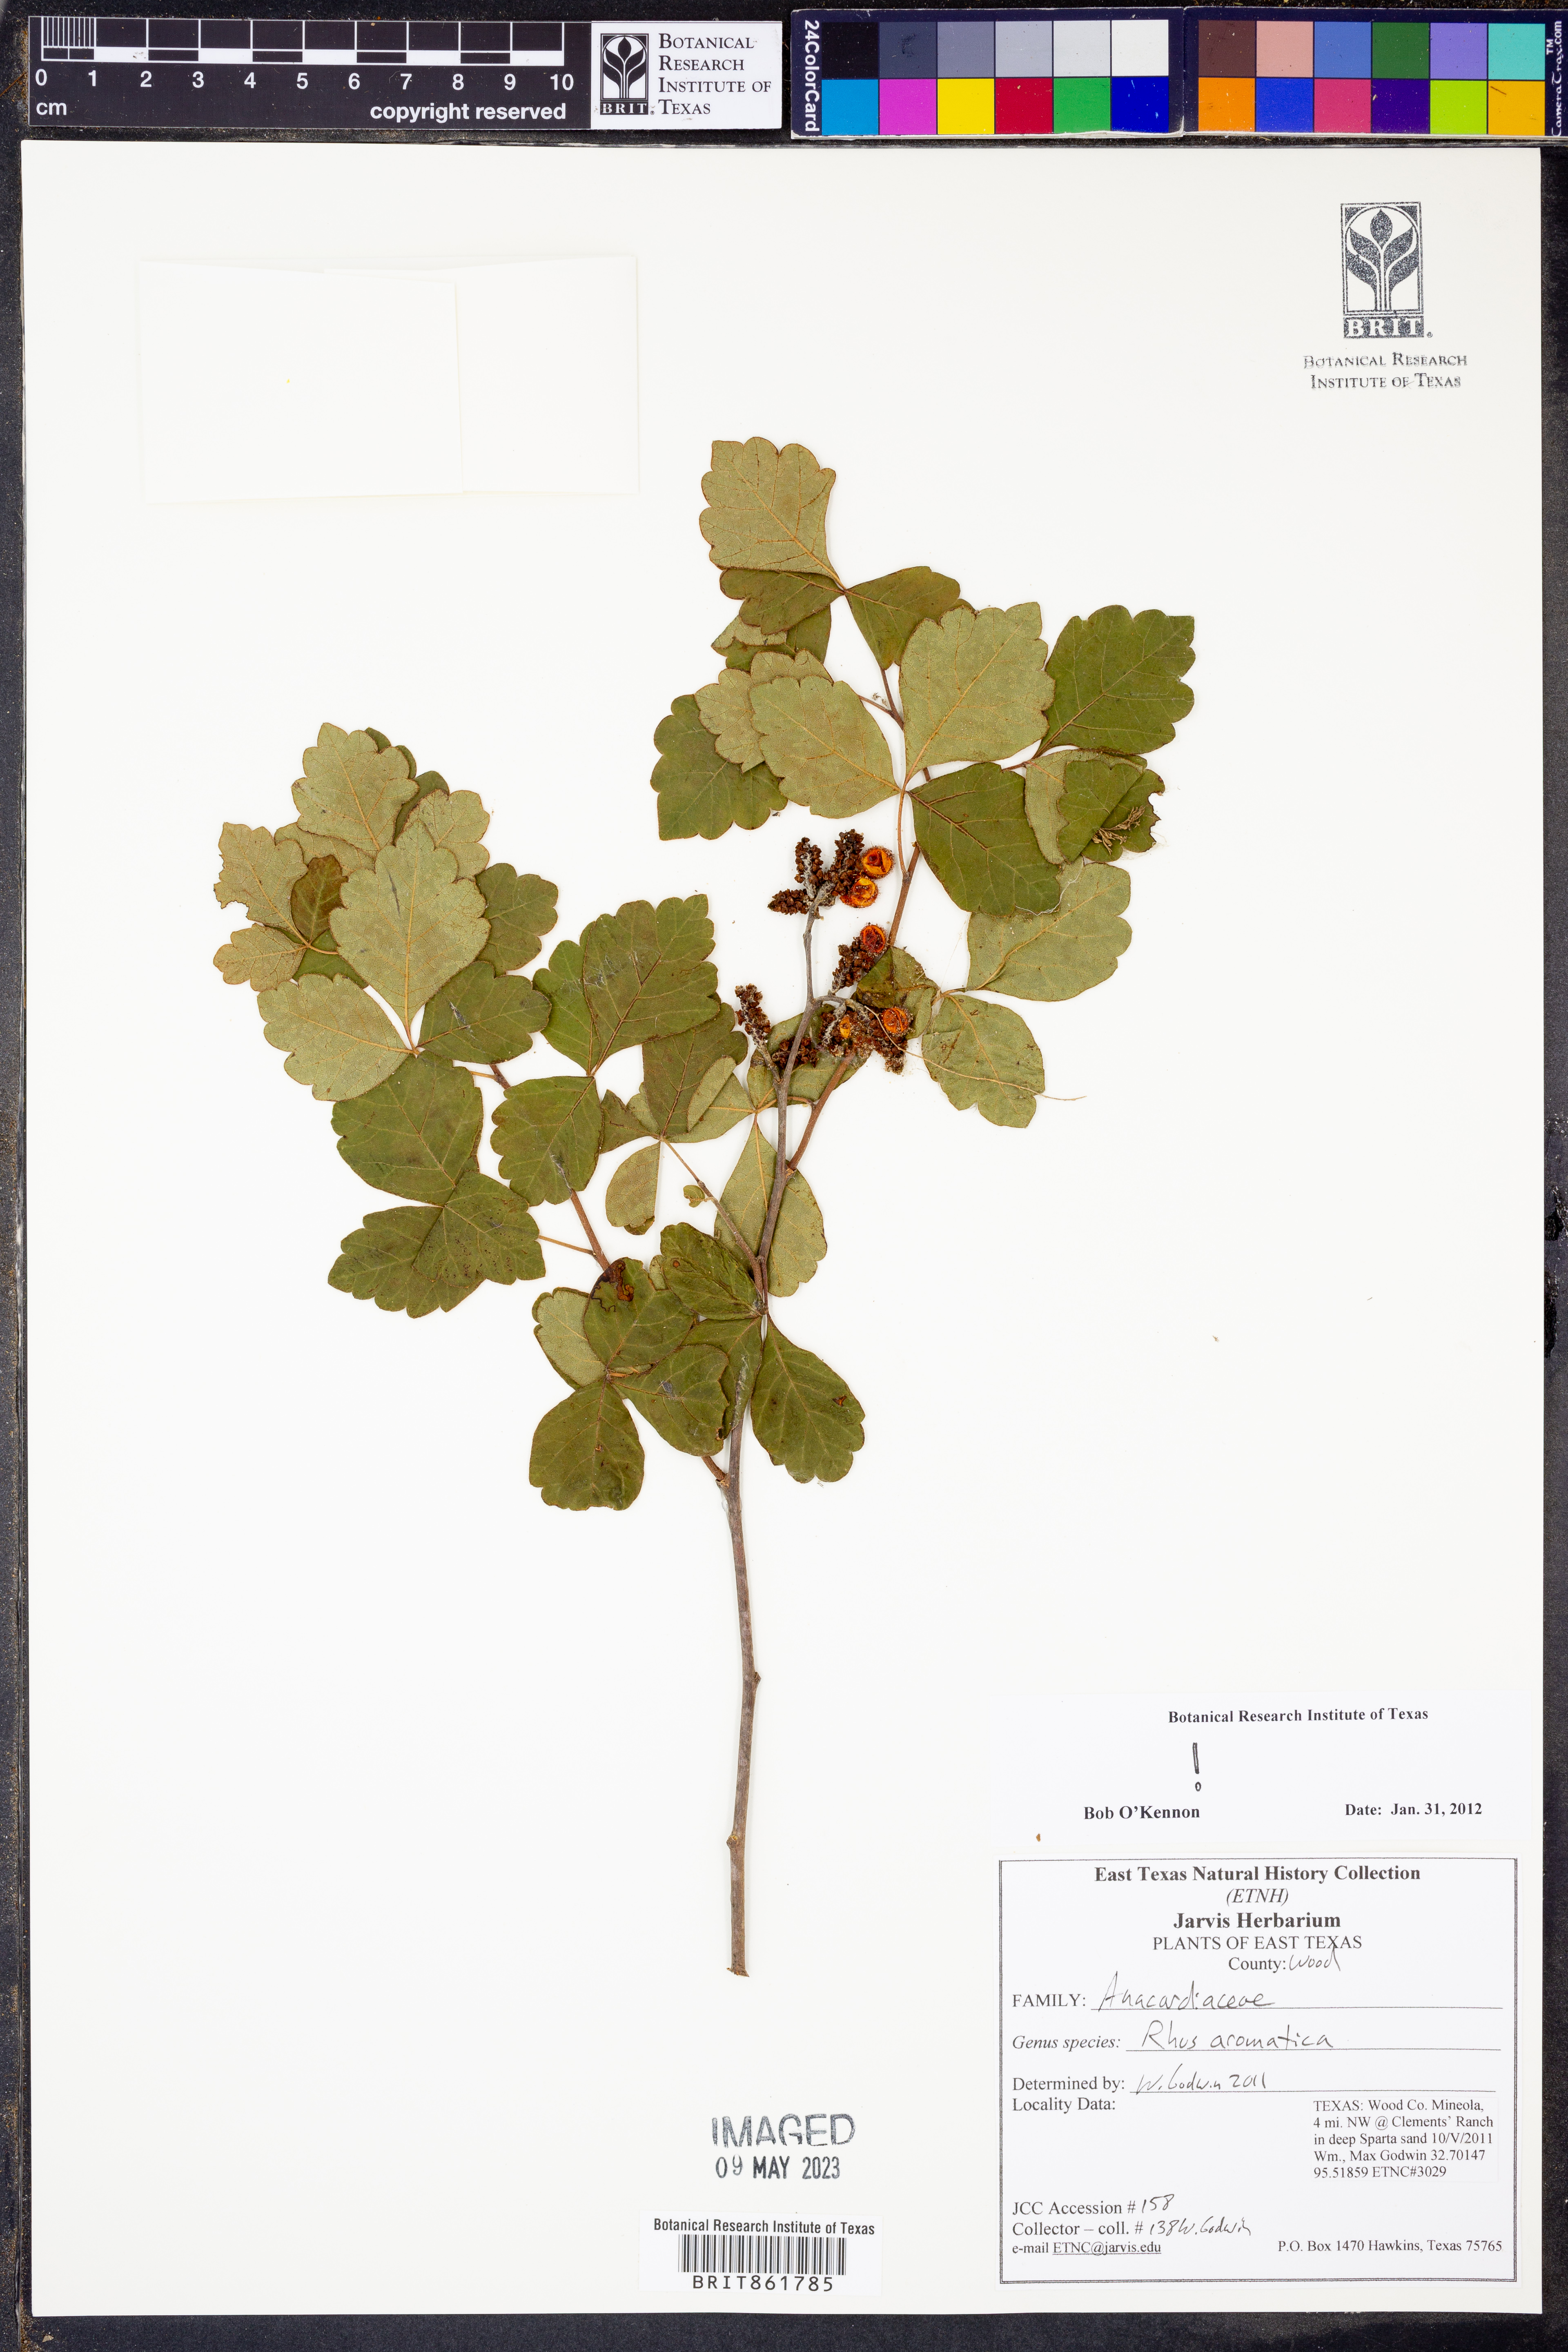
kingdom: Plantae
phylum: Tracheophyta
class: Magnoliopsida
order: Sapindales
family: Anacardiaceae
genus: Rhus
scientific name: Rhus aromatica
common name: Aromatic sumac
